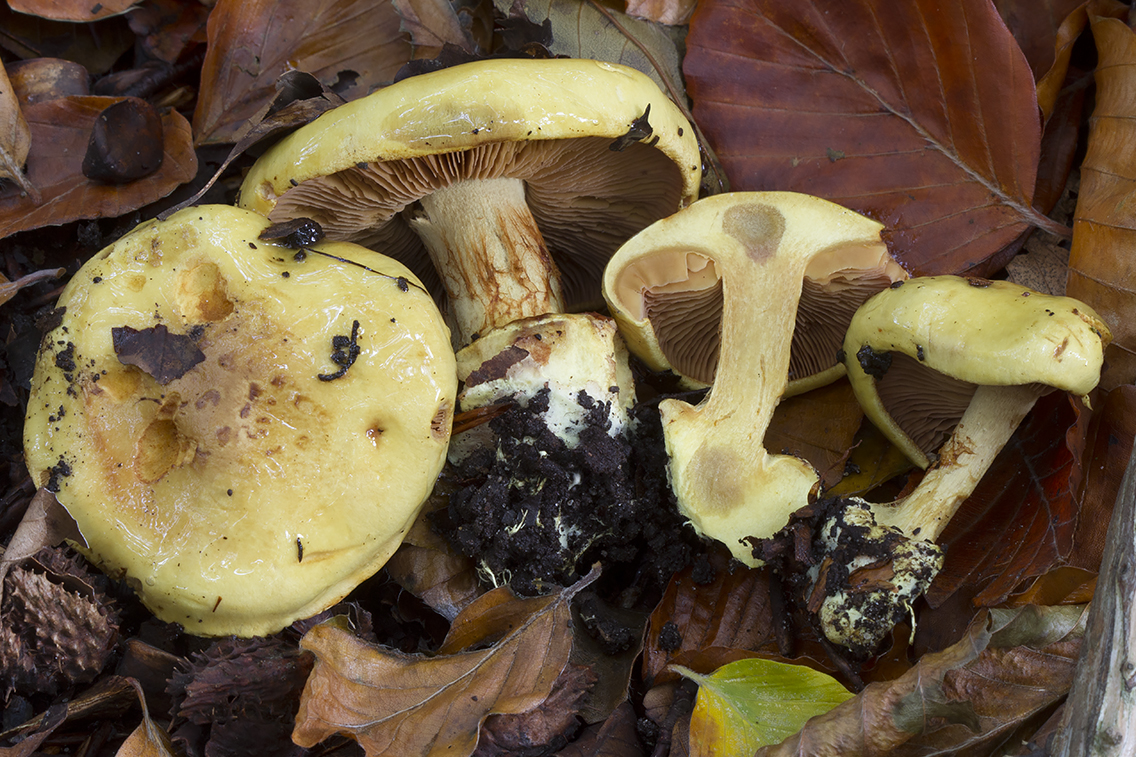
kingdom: Fungi
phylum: Basidiomycota
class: Agaricomycetes
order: Agaricales
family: Cortinariaceae
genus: Calonarius
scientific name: Calonarius fulvocitrinus
